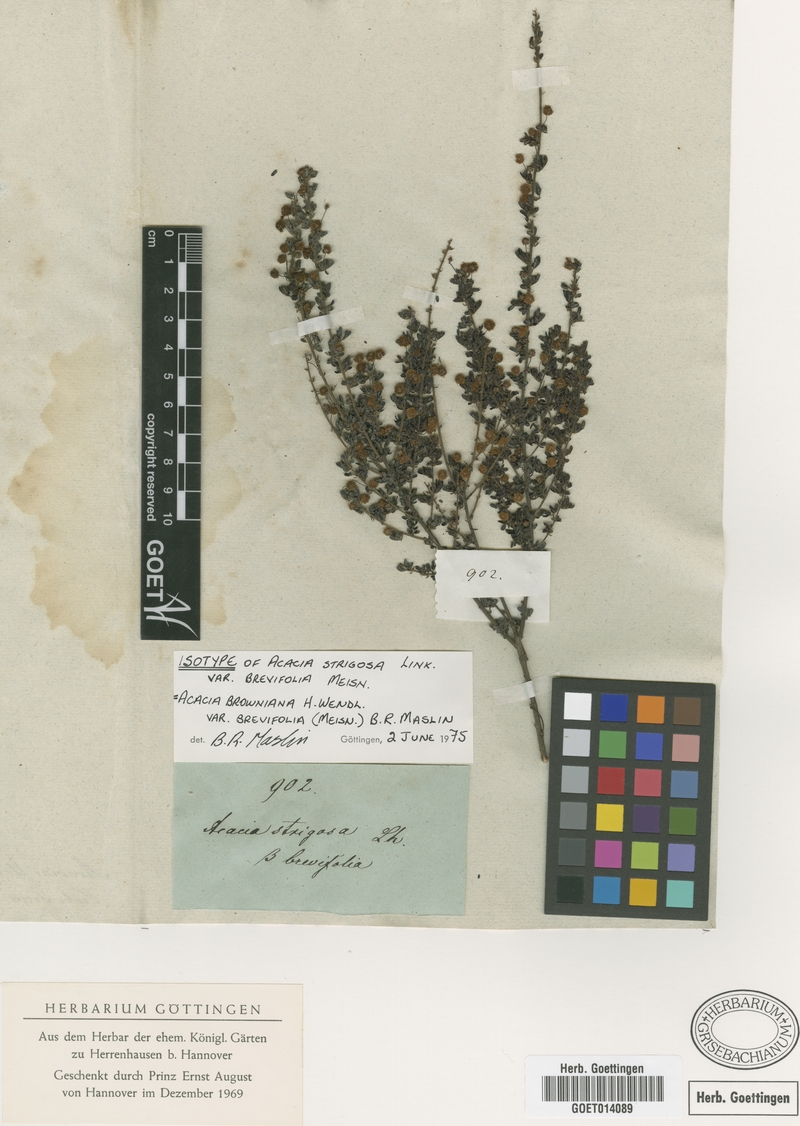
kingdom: Plantae
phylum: Tracheophyta
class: Magnoliopsida
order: Fabales
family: Fabaceae
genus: Acacia
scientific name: Acacia browniana
